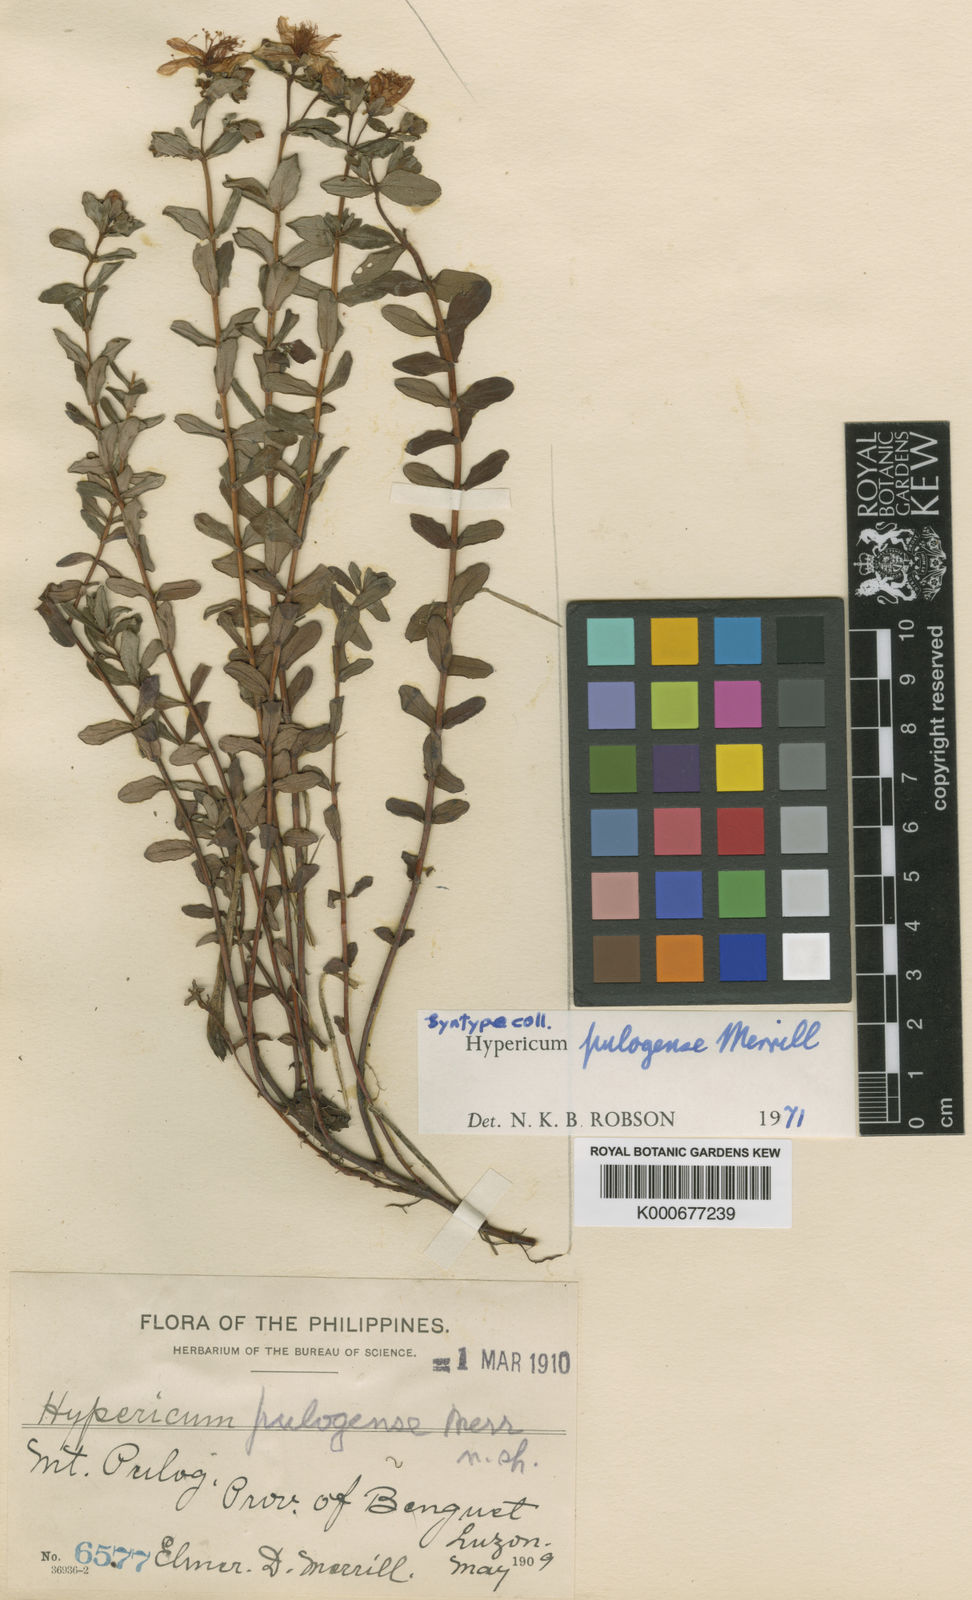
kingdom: Plantae
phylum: Tracheophyta
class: Magnoliopsida
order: Malpighiales
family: Hypericaceae
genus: Hypericum
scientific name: Hypericum pulogense
